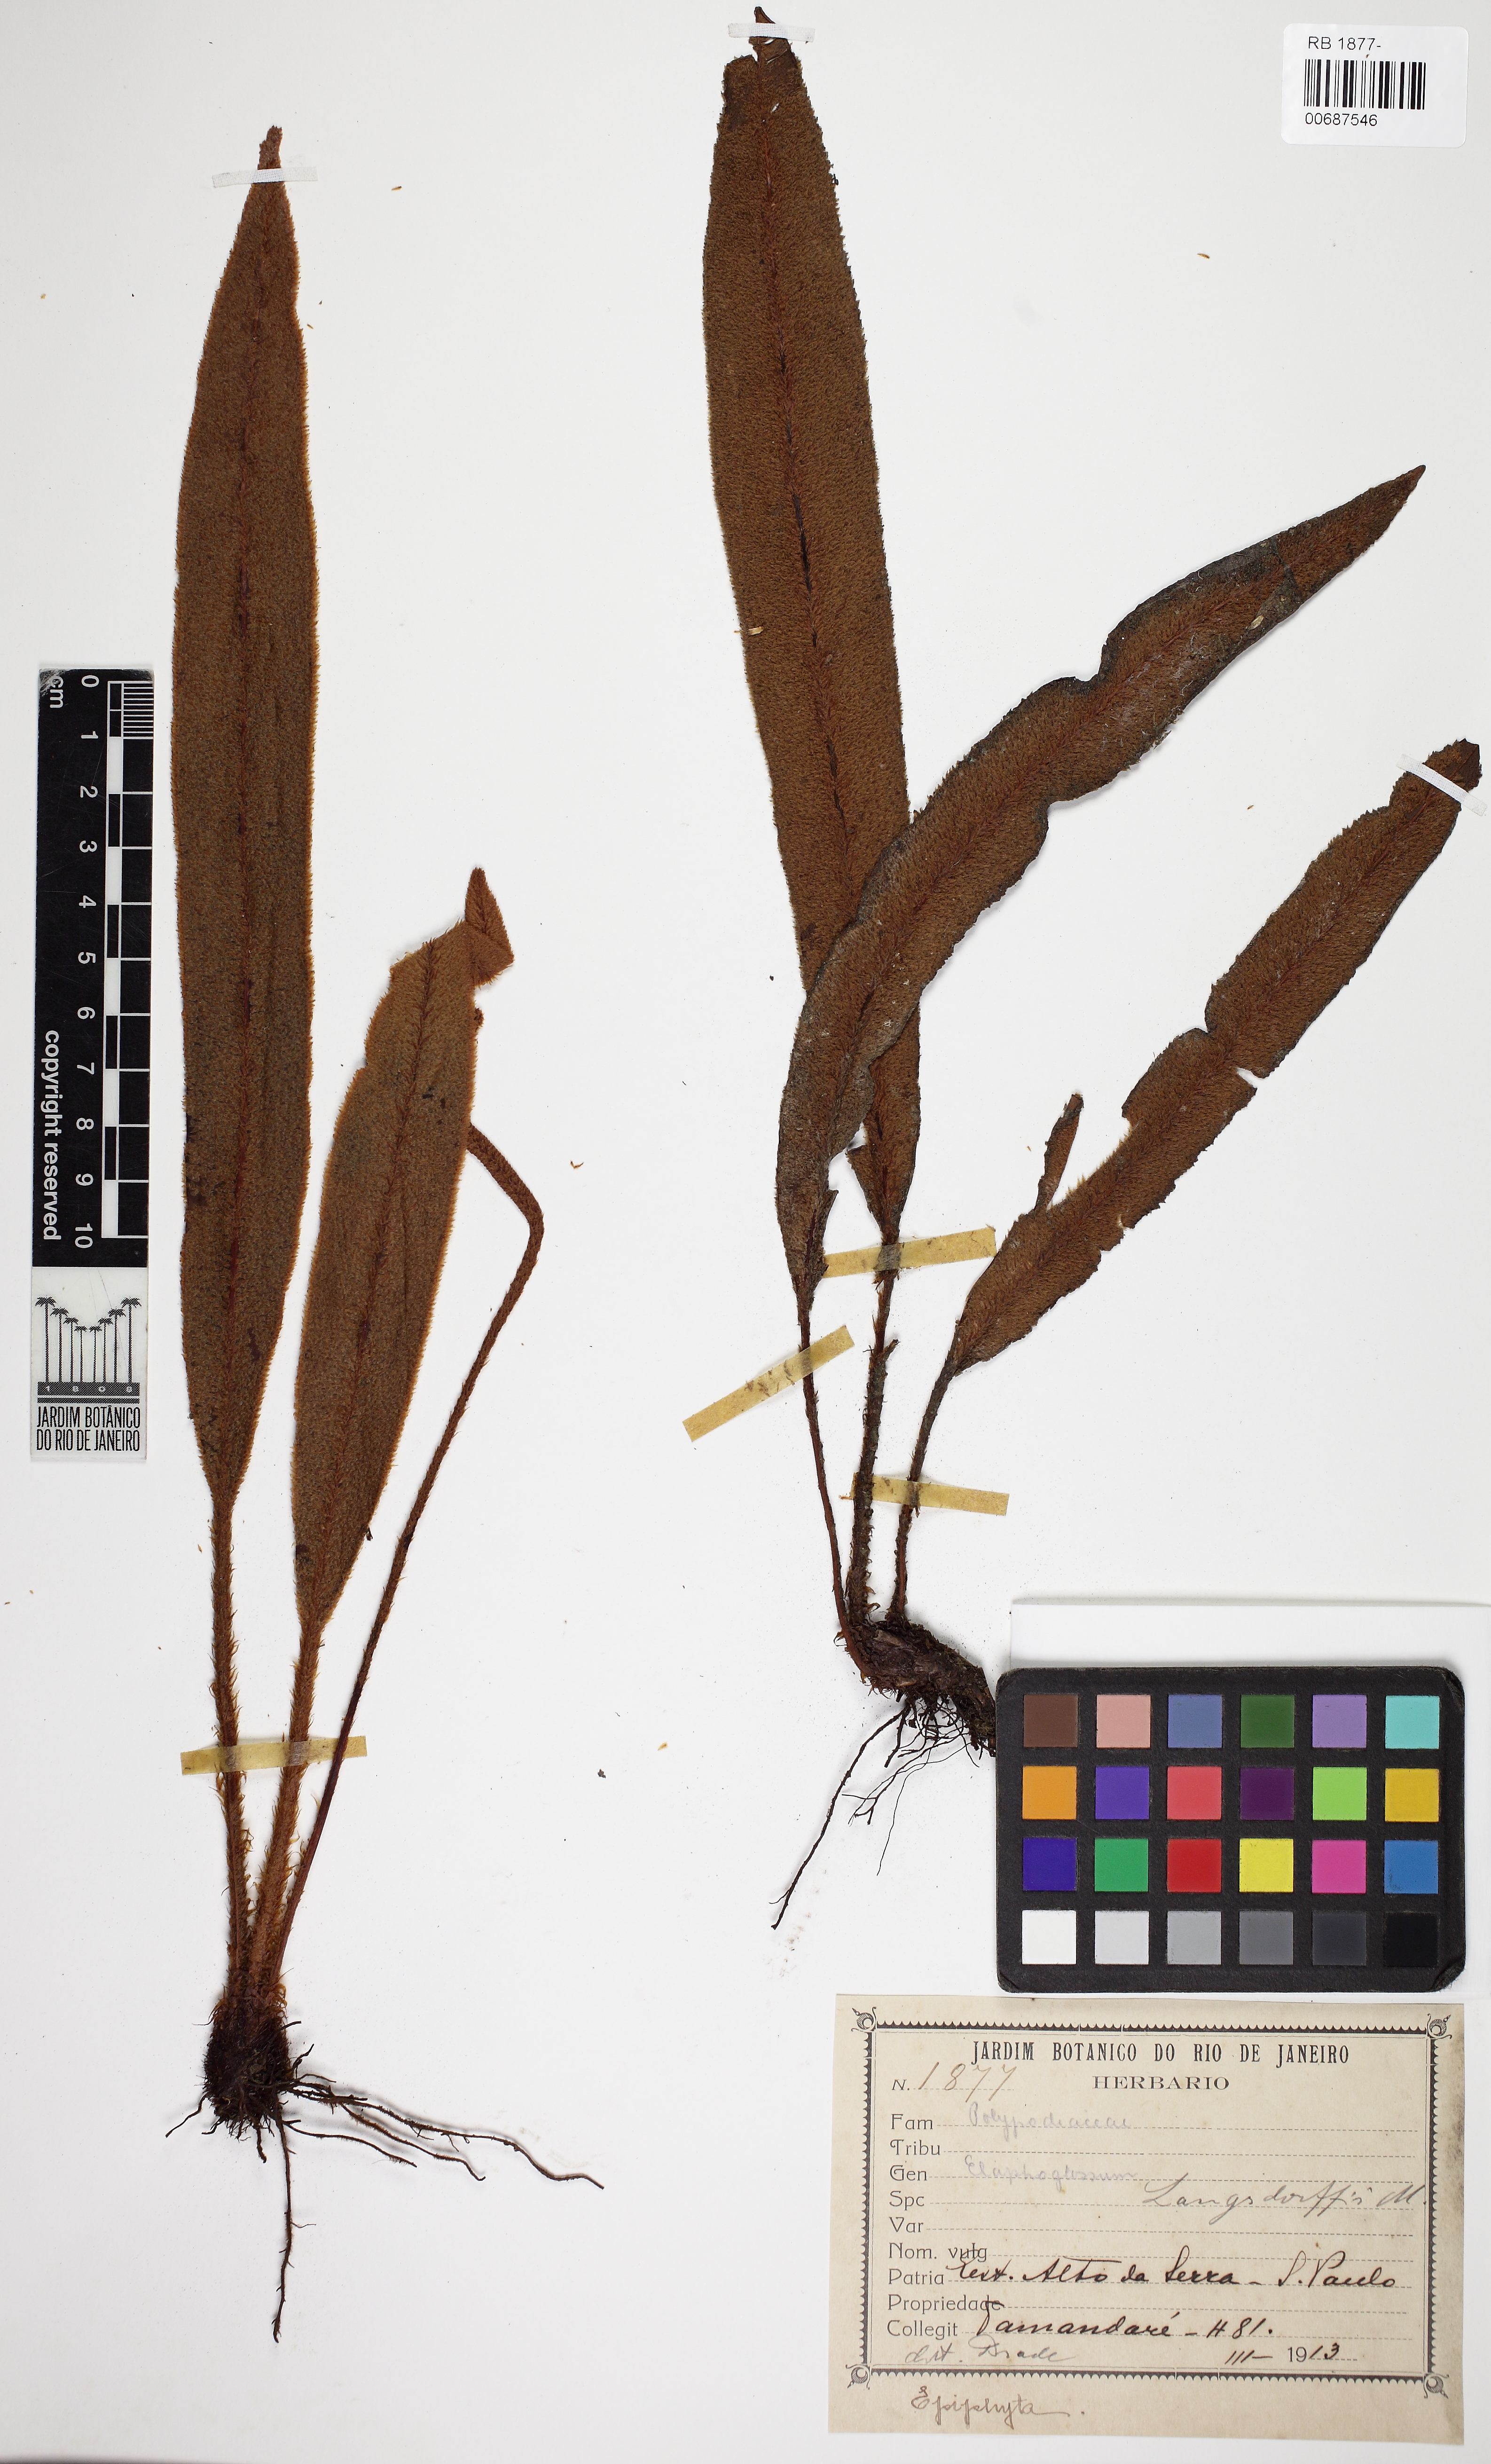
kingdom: Plantae
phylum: Tracheophyta
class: Polypodiopsida
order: Polypodiales
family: Dryopteridaceae
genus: Elaphoglossum
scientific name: Elaphoglossum langsdorffii
